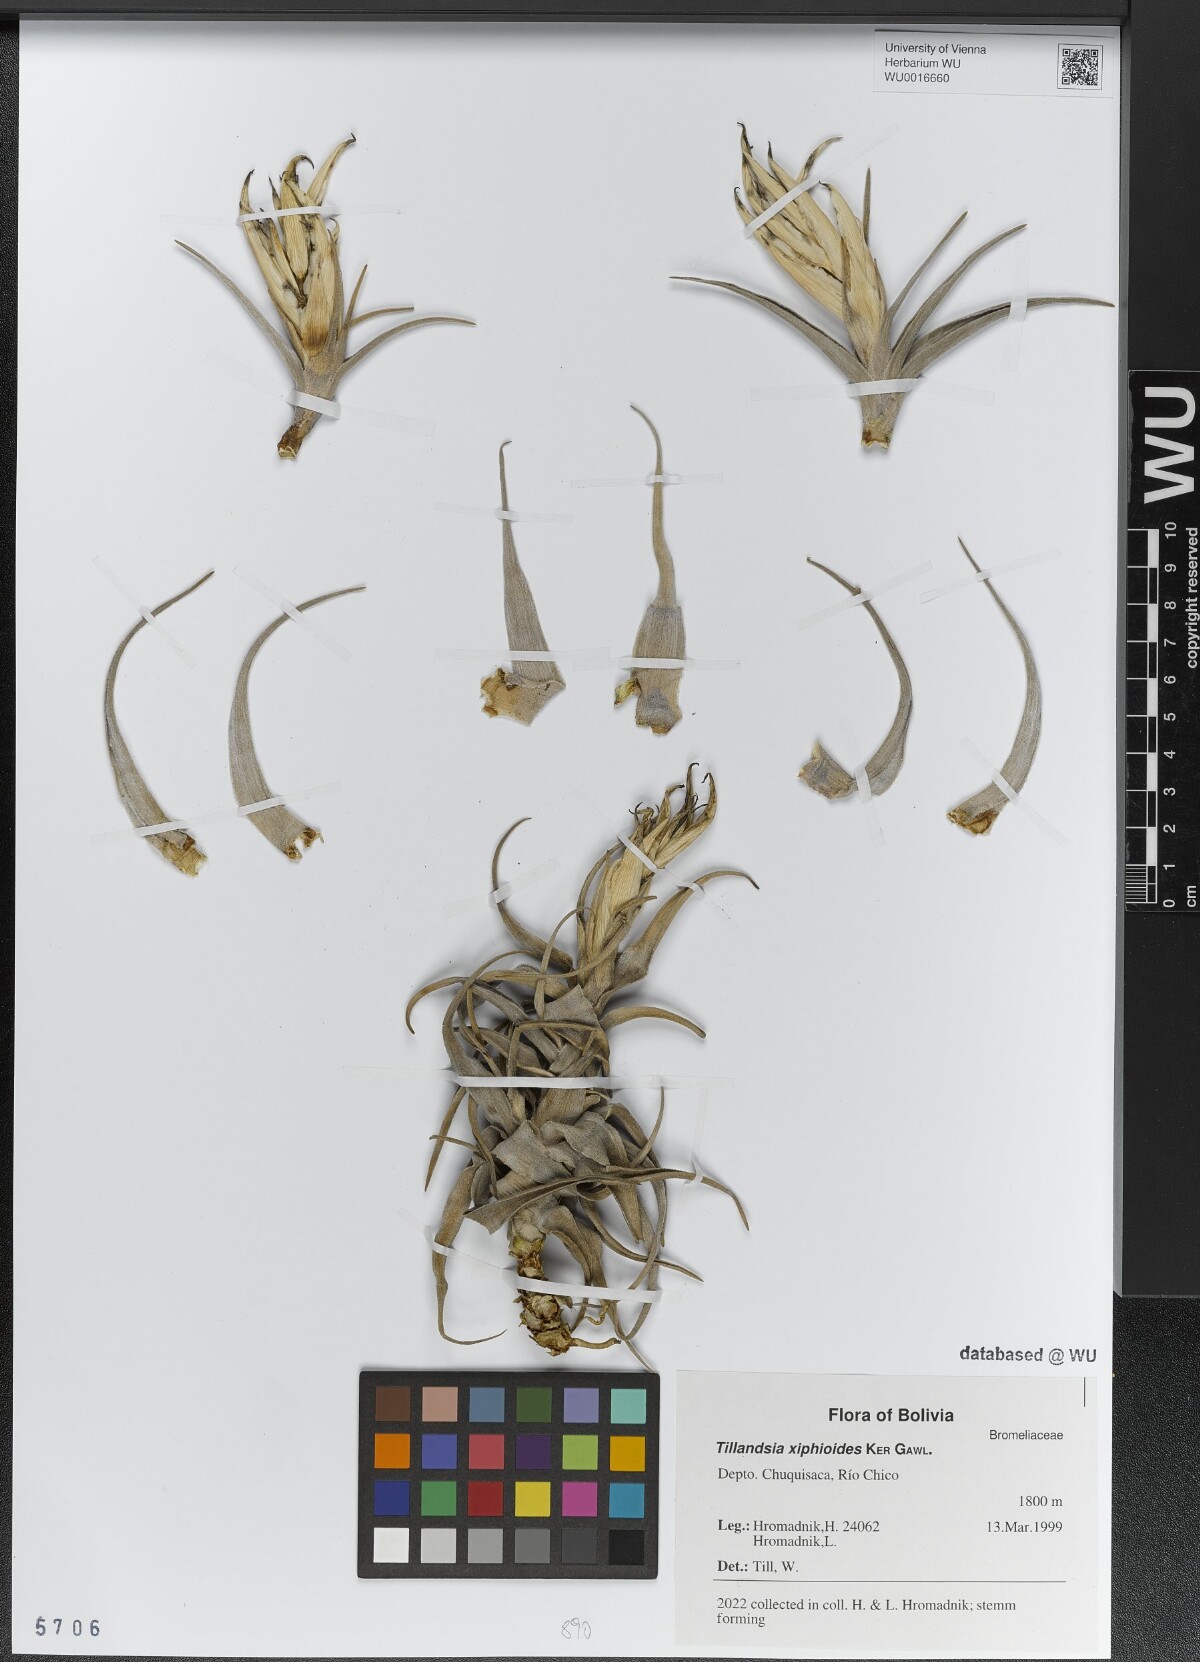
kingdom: Plantae
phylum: Tracheophyta
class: Liliopsida
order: Poales
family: Bromeliaceae
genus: Tillandsia
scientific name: Tillandsia xiphioides
